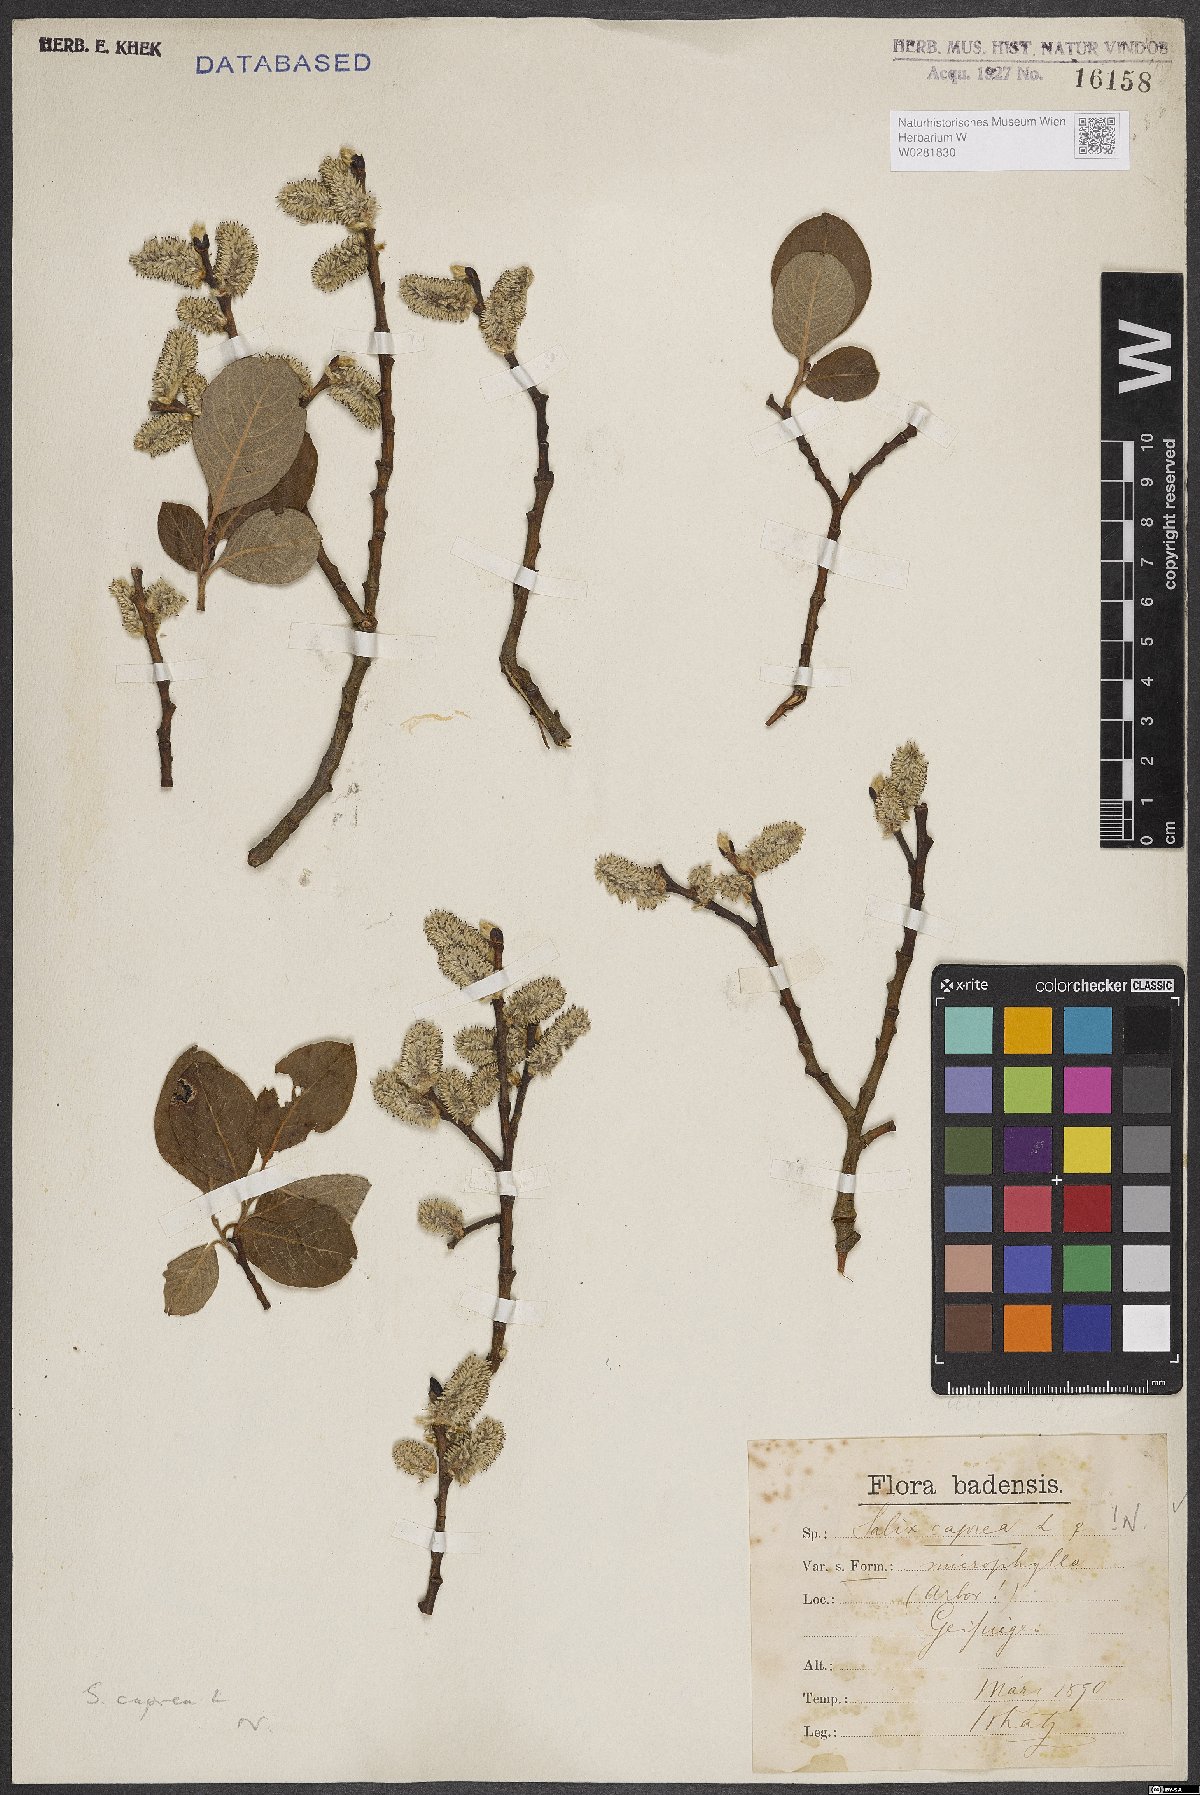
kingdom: Plantae
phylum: Tracheophyta
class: Magnoliopsida
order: Malpighiales
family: Salicaceae
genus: Salix
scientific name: Salix caprea
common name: Goat willow
